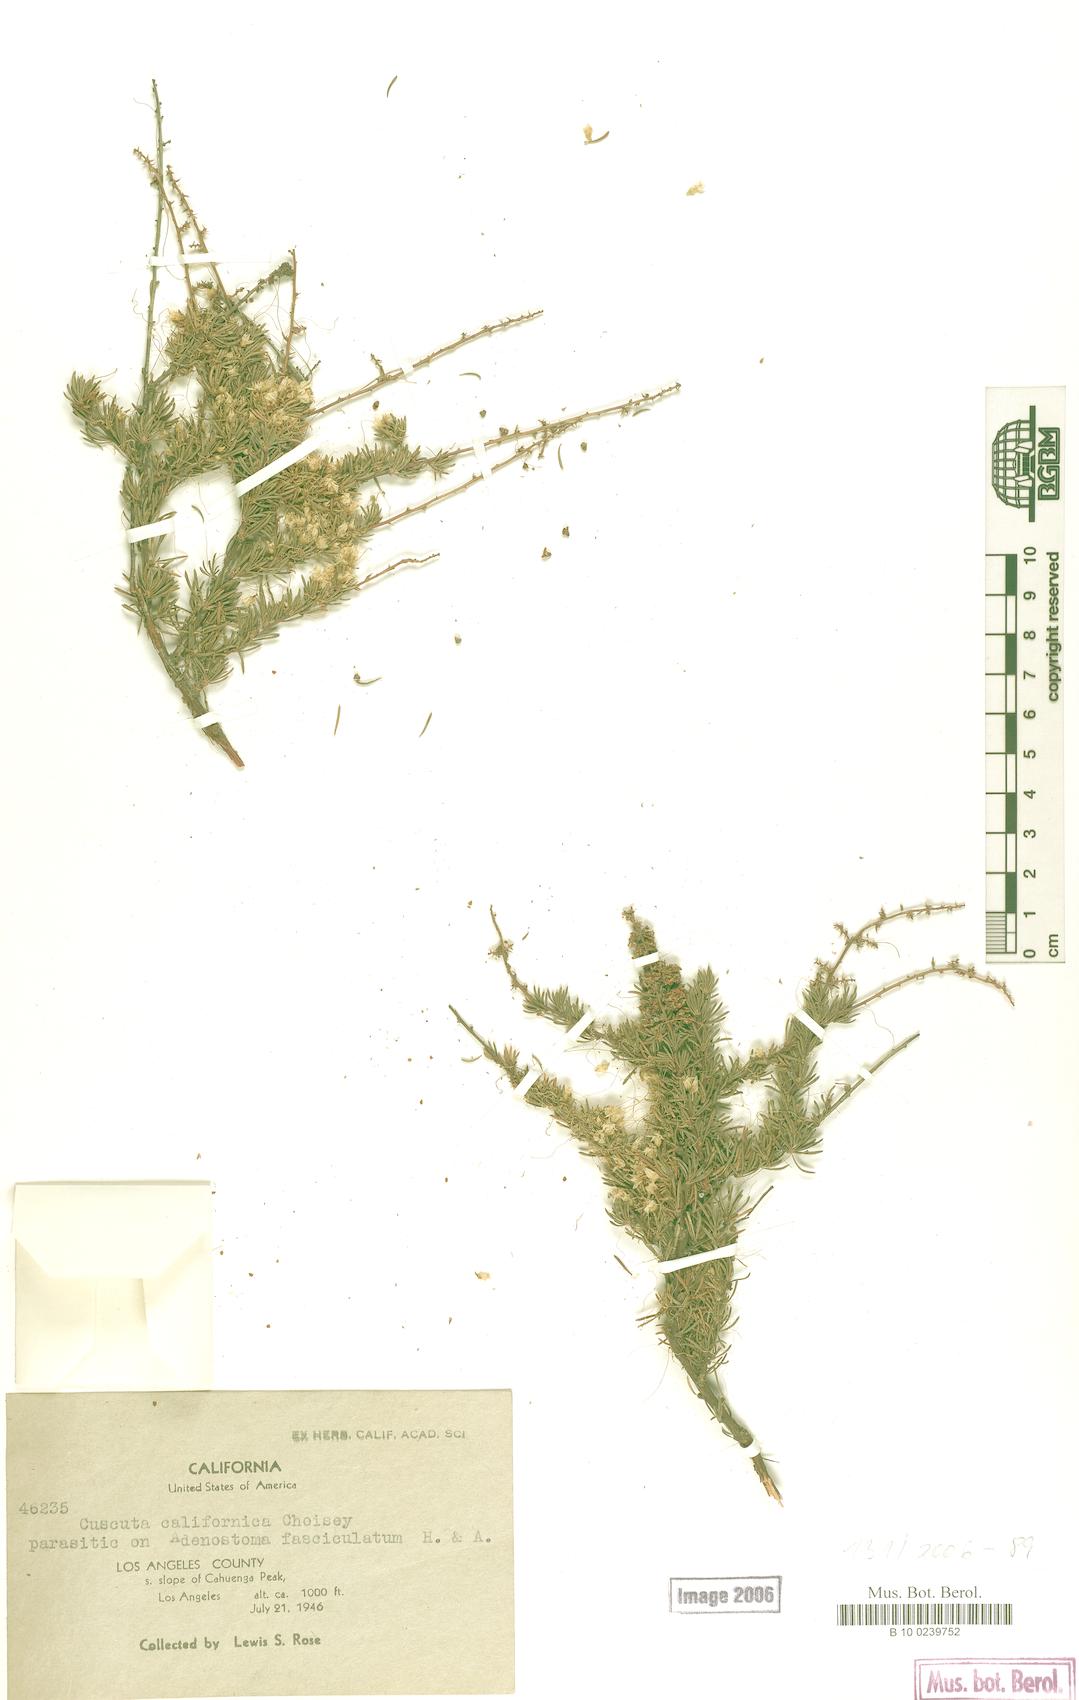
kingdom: Plantae
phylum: Tracheophyta
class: Magnoliopsida
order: Solanales
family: Convolvulaceae
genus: Cuscuta
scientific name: Cuscuta californica
